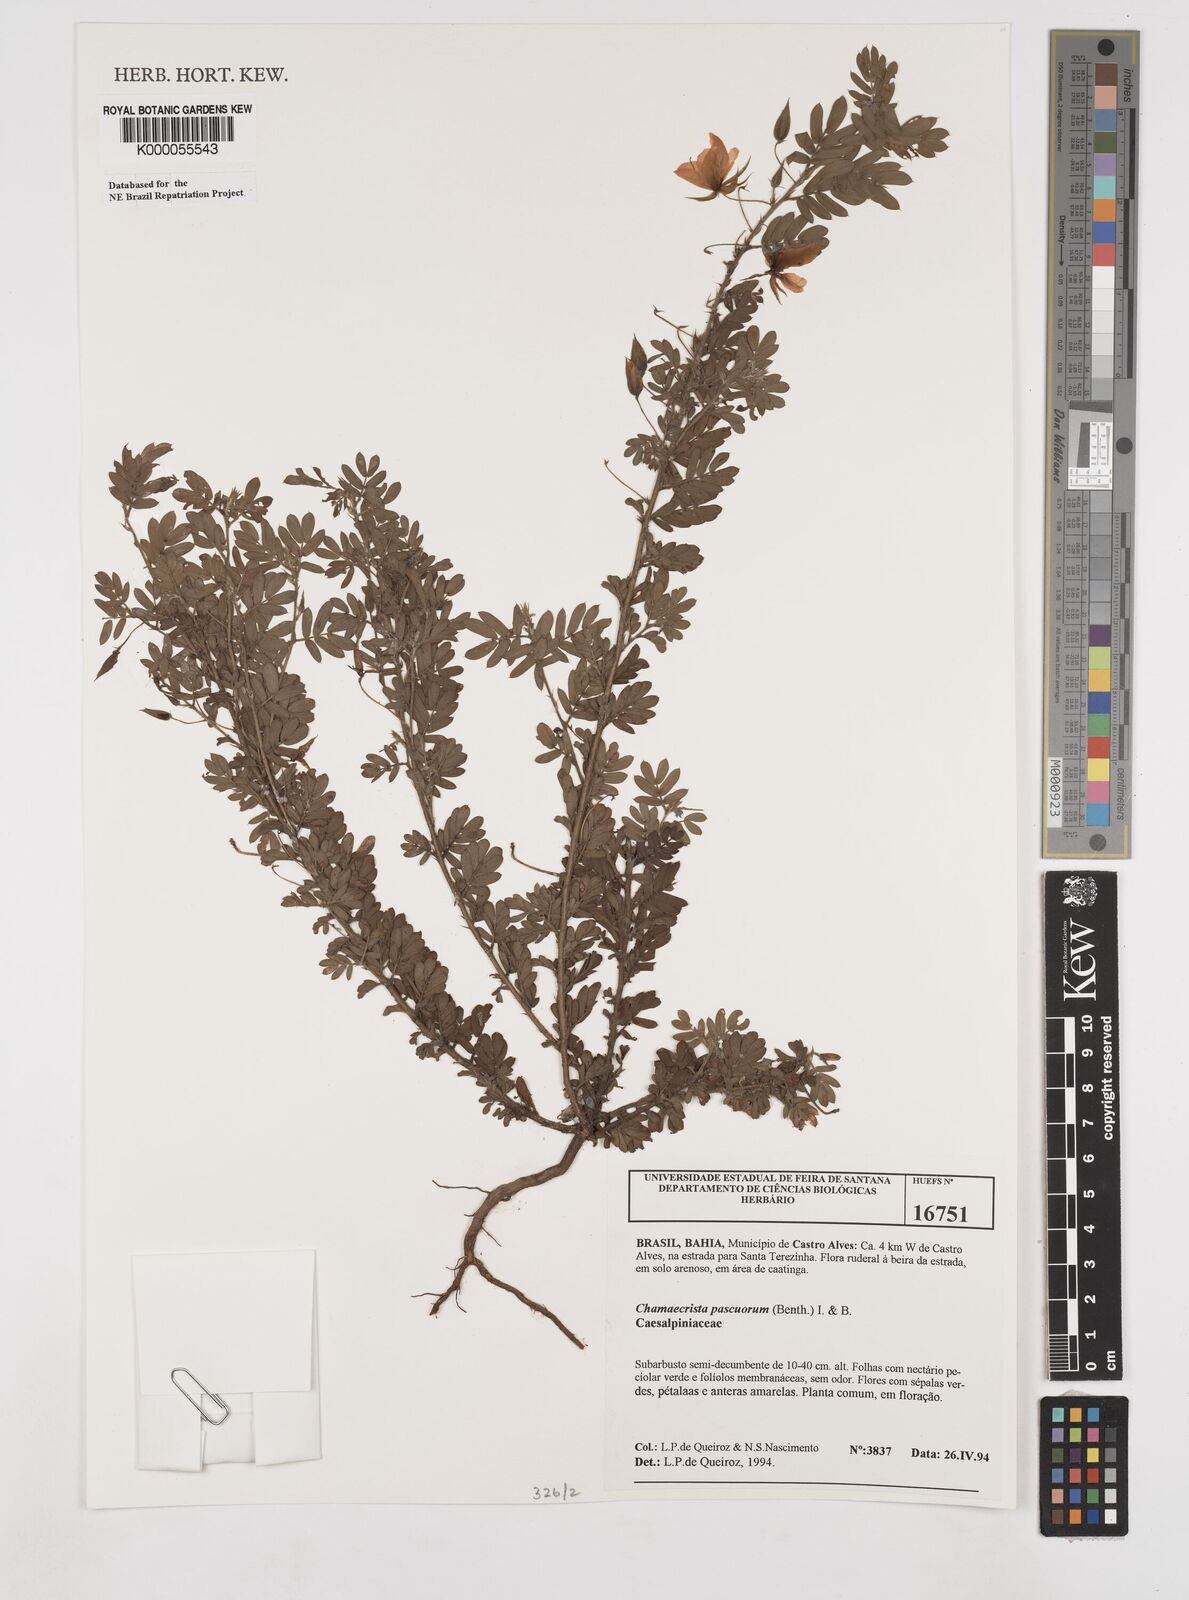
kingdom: Plantae
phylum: Tracheophyta
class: Magnoliopsida
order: Fabales
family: Fabaceae
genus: Chamaecrista
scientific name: Chamaecrista pascuorum
